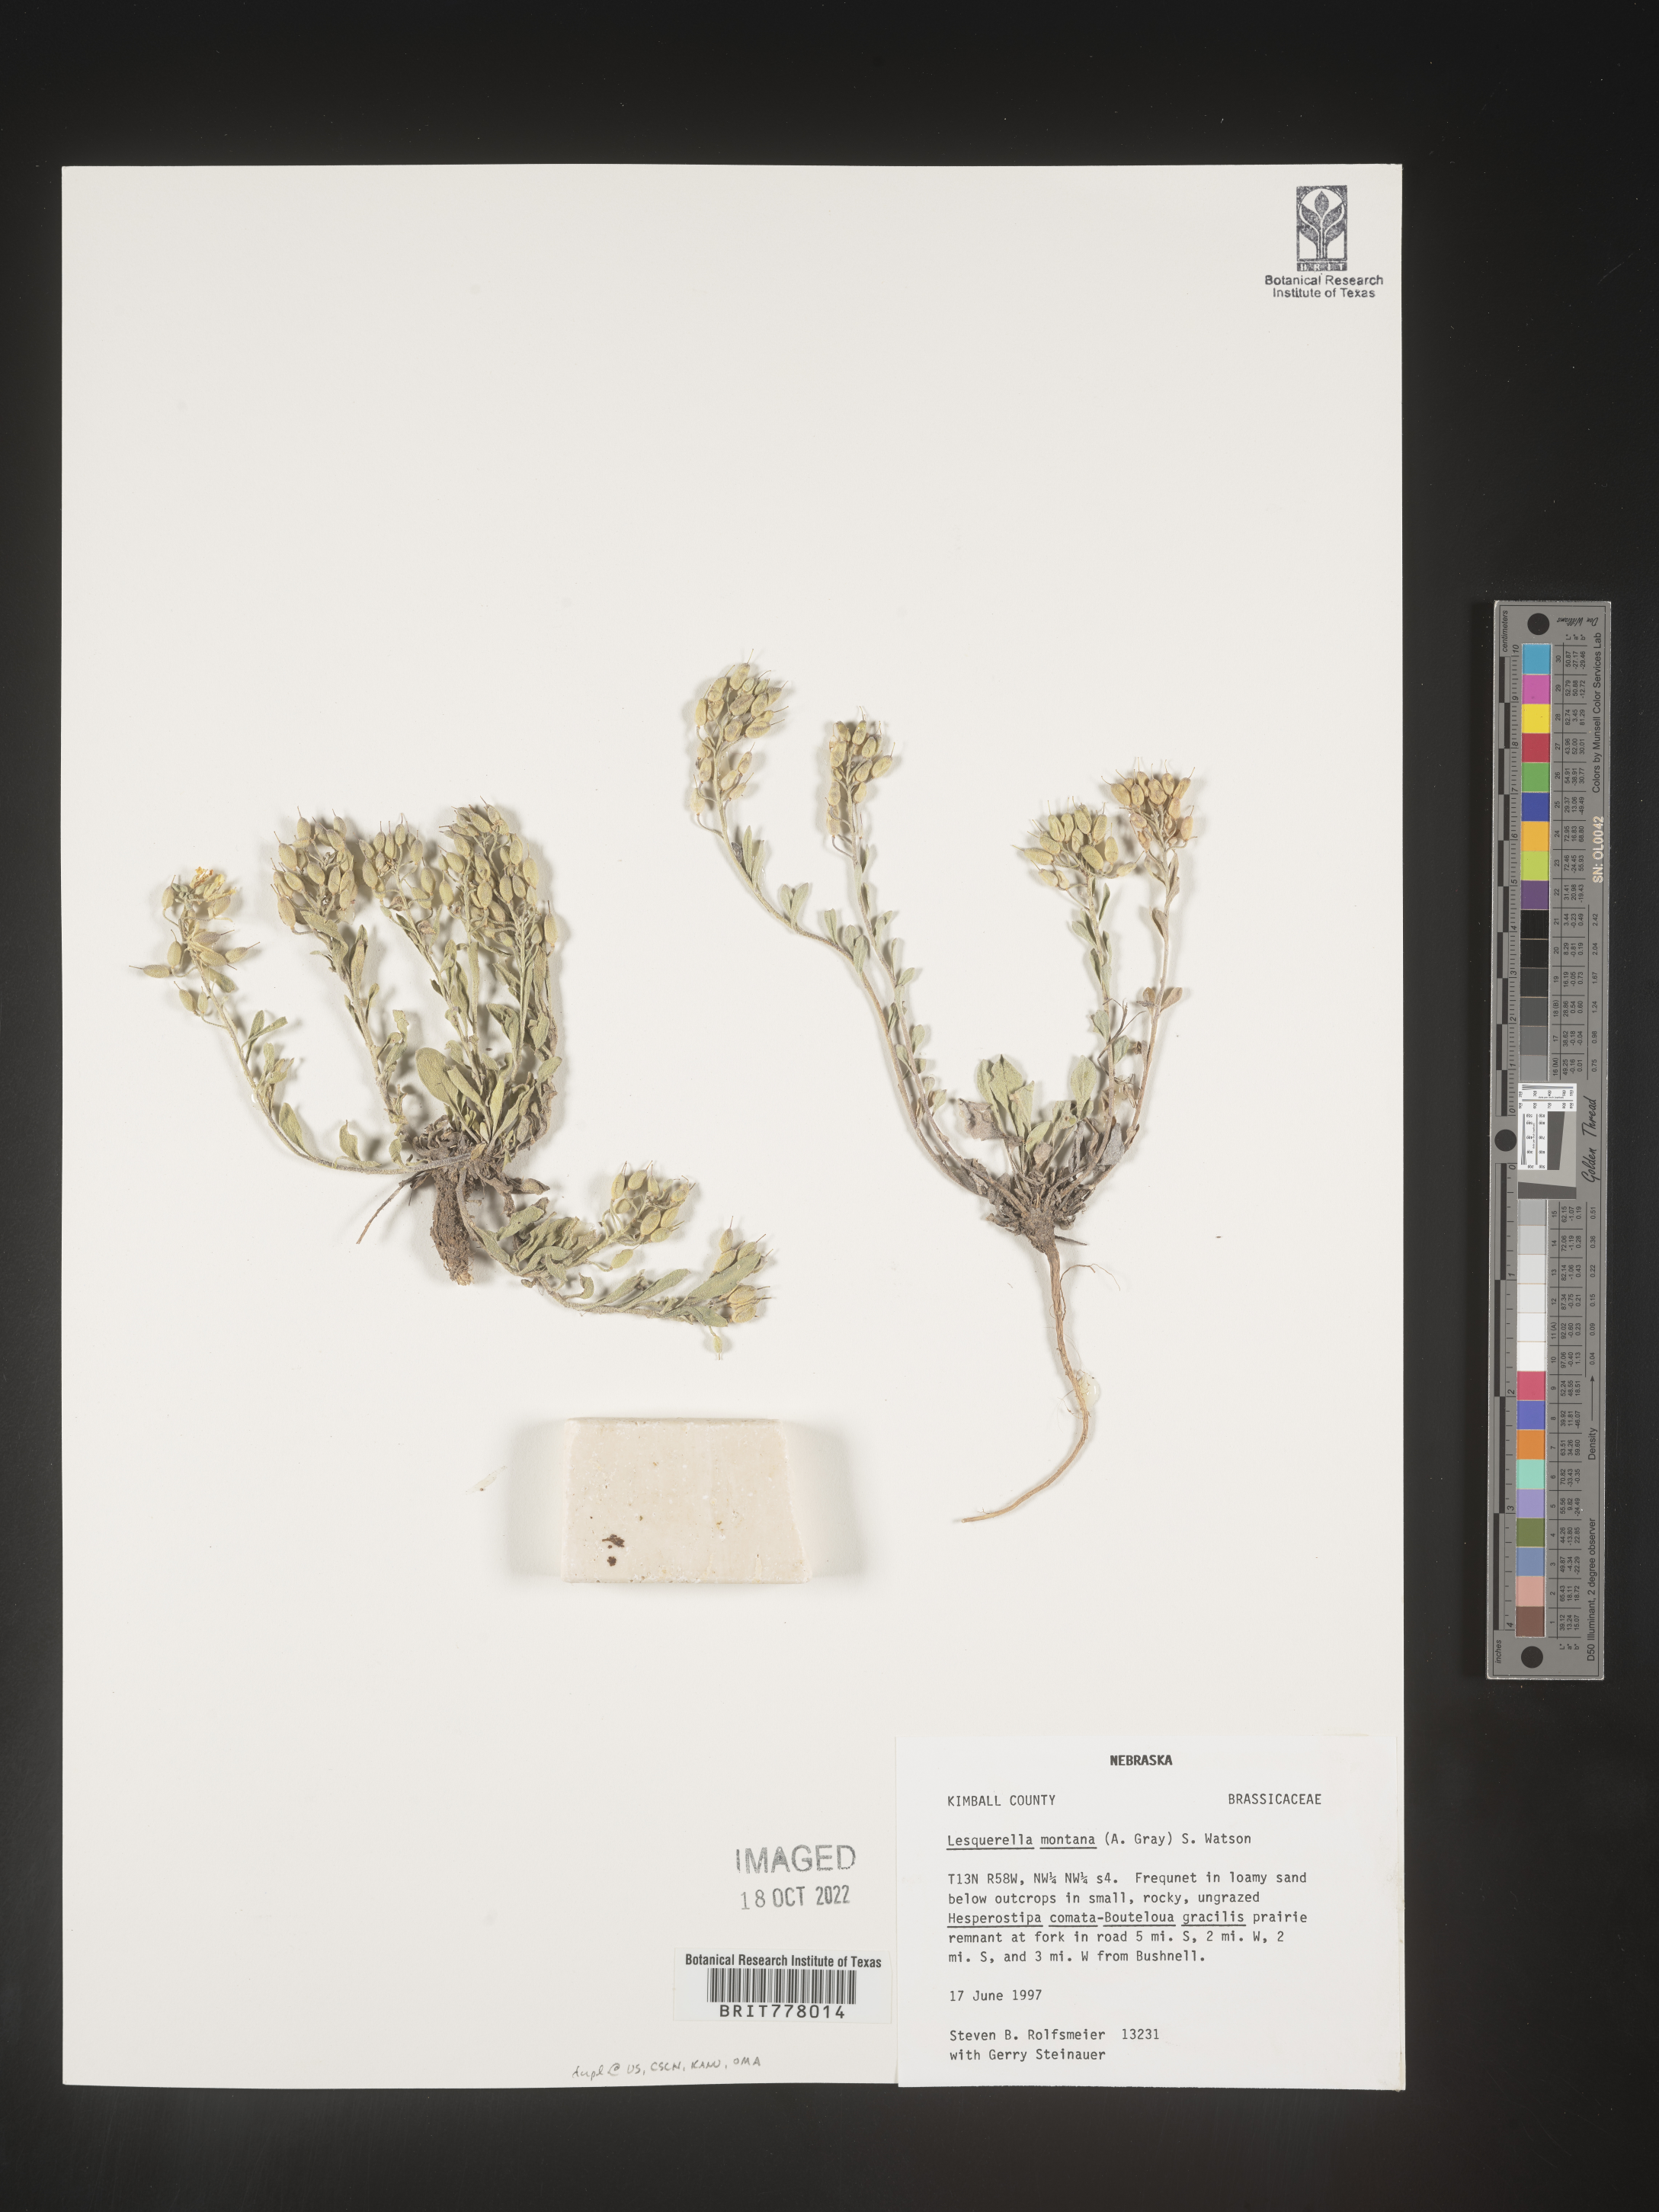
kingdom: Chromista
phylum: Cercozoa
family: Psammonobiotidae
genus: Lesquerella
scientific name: Lesquerella
